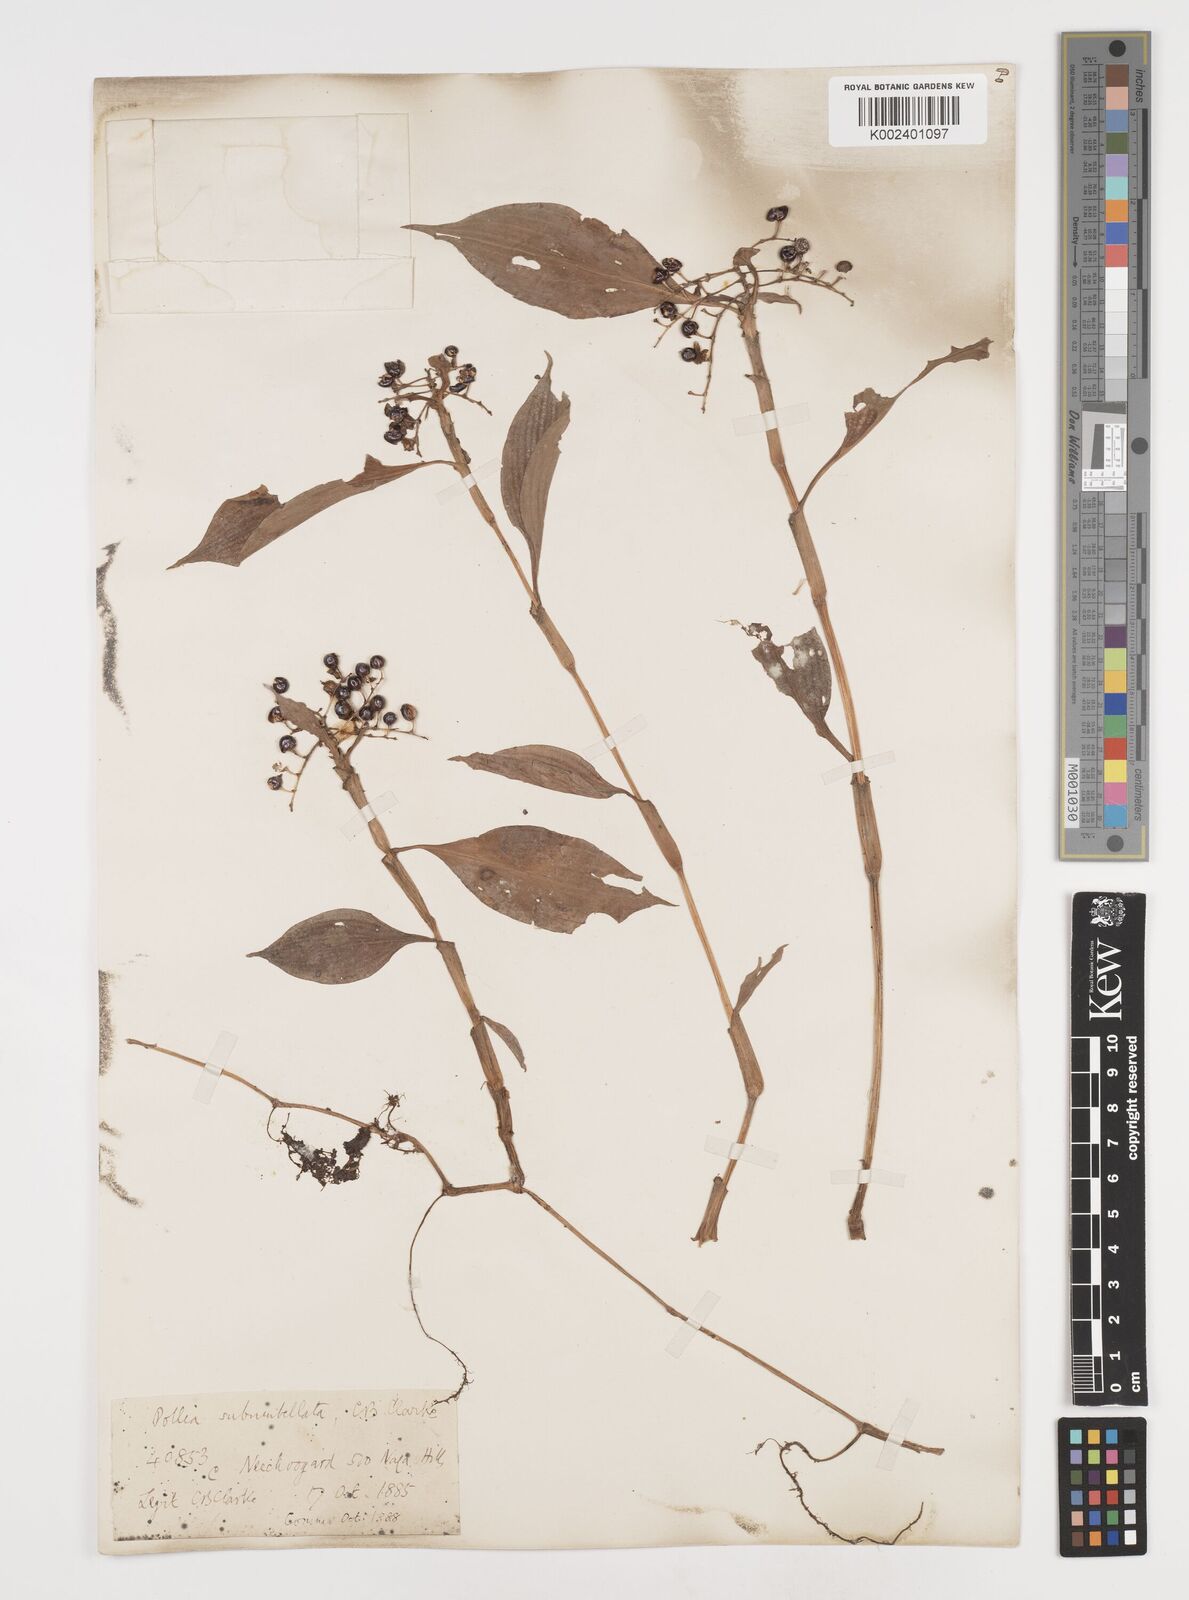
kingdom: Plantae
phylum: Tracheophyta
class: Liliopsida
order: Commelinales
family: Commelinaceae
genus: Pollia
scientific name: Pollia subumbellata
